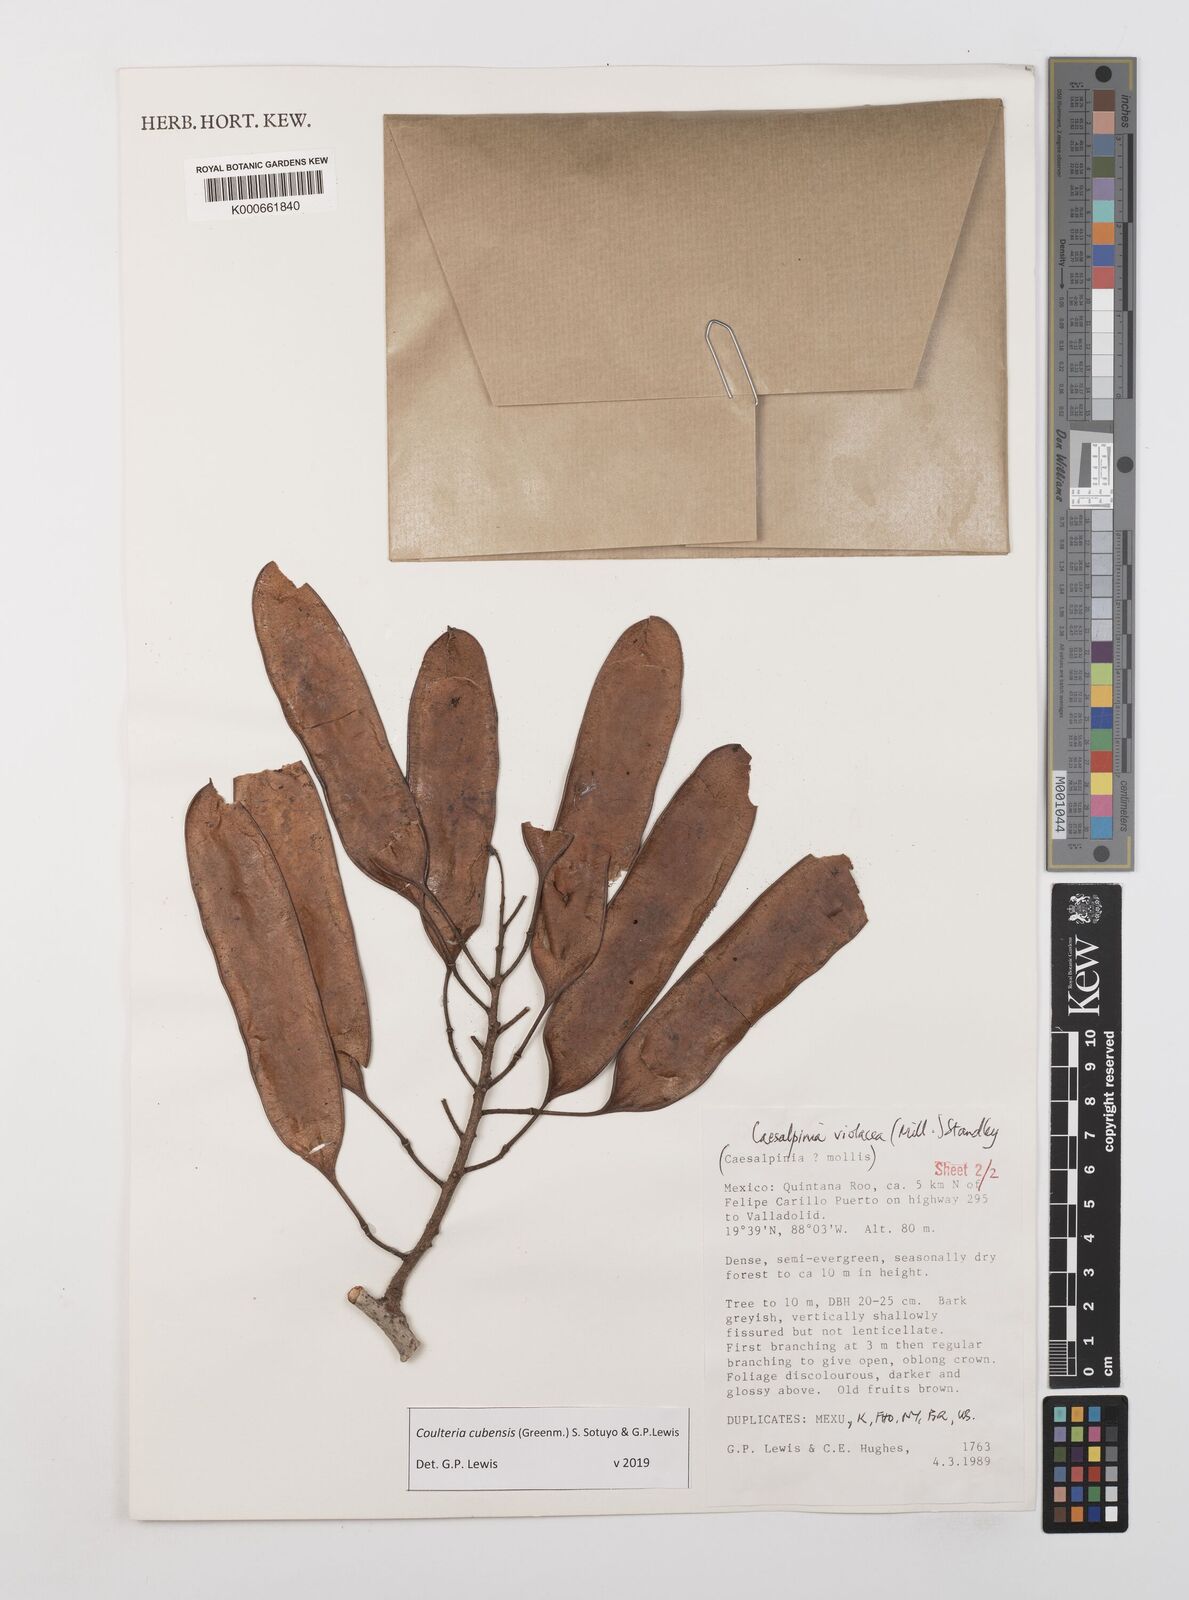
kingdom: Plantae
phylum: Tracheophyta
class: Magnoliopsida
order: Fabales
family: Fabaceae
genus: Coulteria
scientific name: Coulteria cubensis
